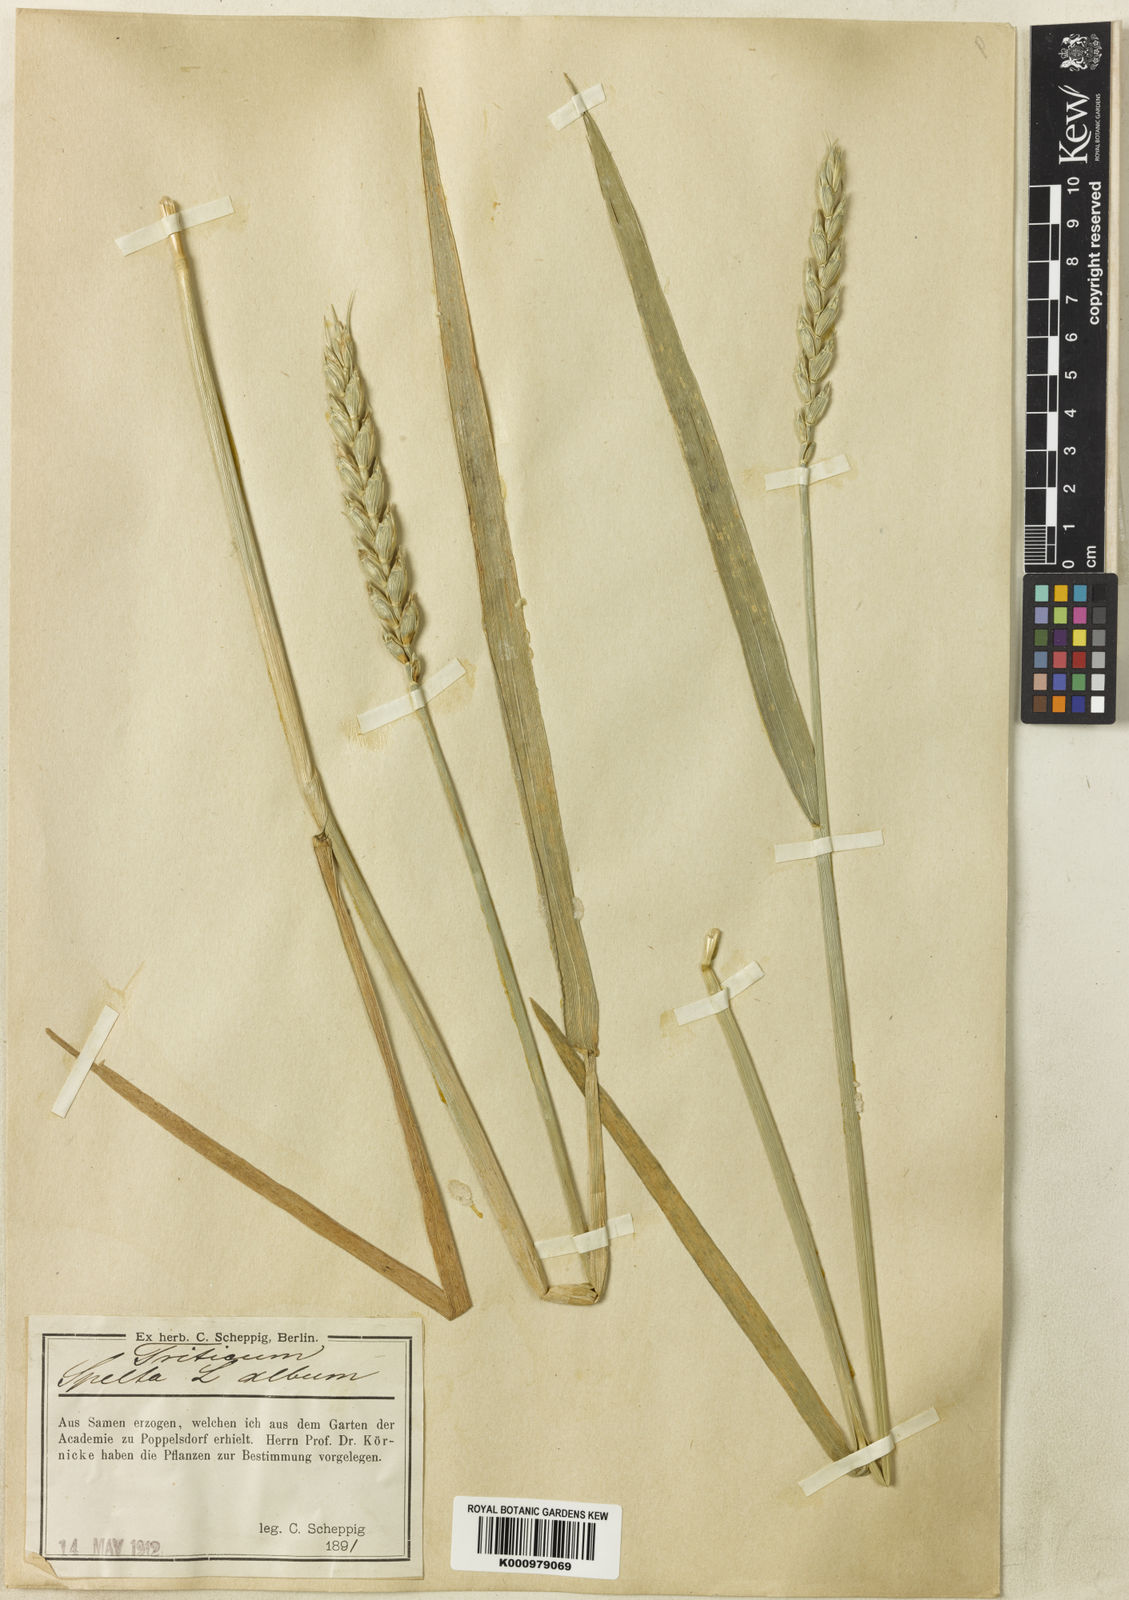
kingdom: Plantae
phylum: Tracheophyta
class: Liliopsida
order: Poales
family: Poaceae
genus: Triticum
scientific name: Triticum aestivum
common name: Common wheat
